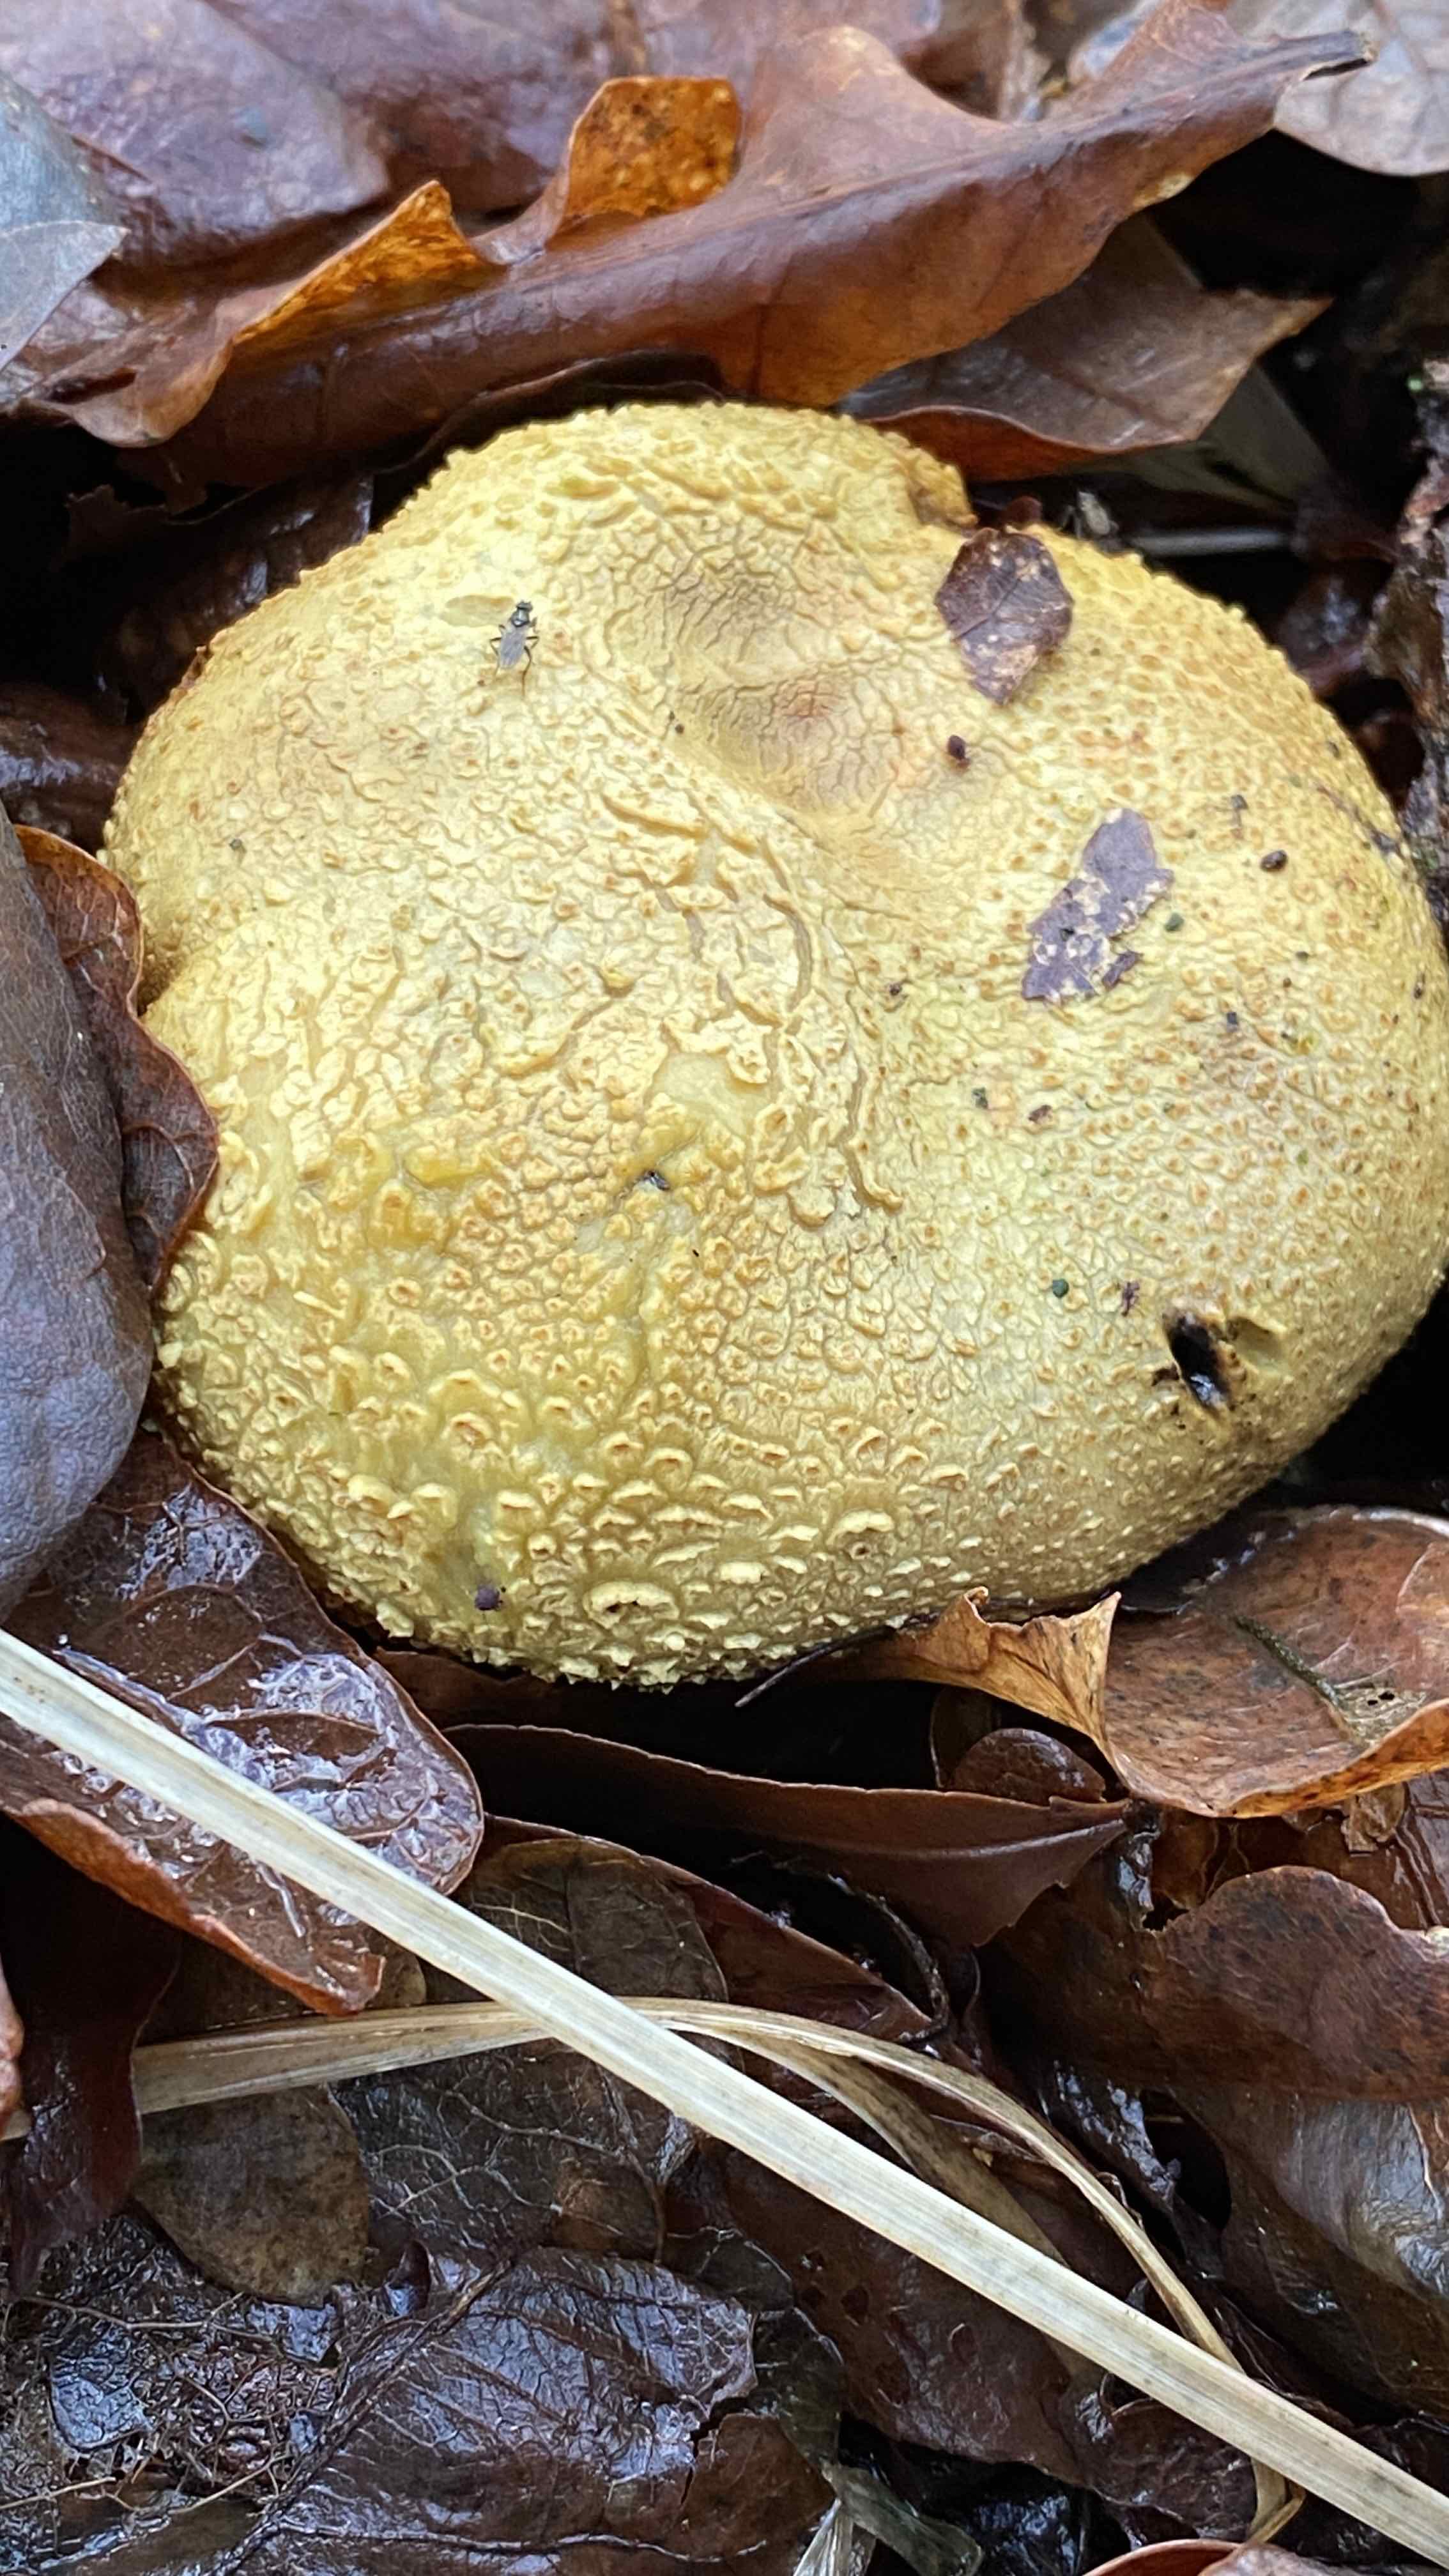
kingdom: Fungi
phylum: Basidiomycota
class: Agaricomycetes
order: Boletales
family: Sclerodermataceae
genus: Scleroderma
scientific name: Scleroderma citrinum
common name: almindelig bruskbold
